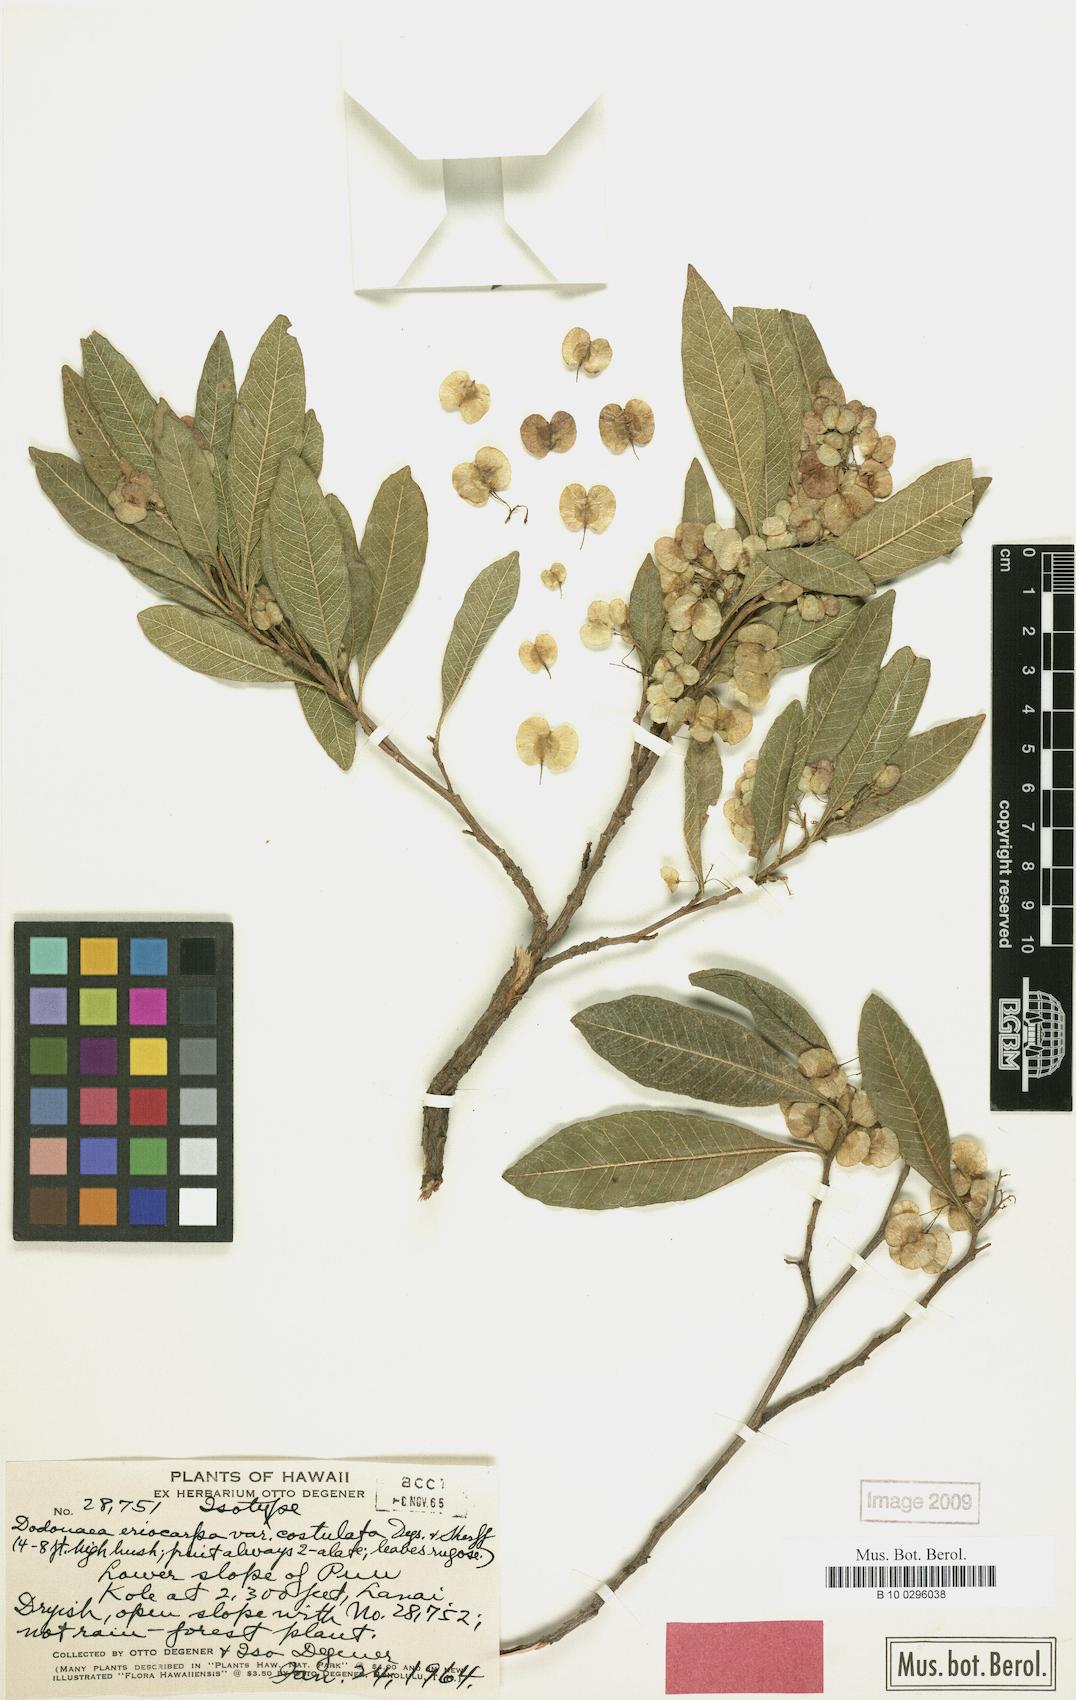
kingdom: Plantae
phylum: Tracheophyta
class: Magnoliopsida
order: Sapindales
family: Sapindaceae
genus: Dodonaea
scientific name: Dodonaea viscosa
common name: Hopbush
